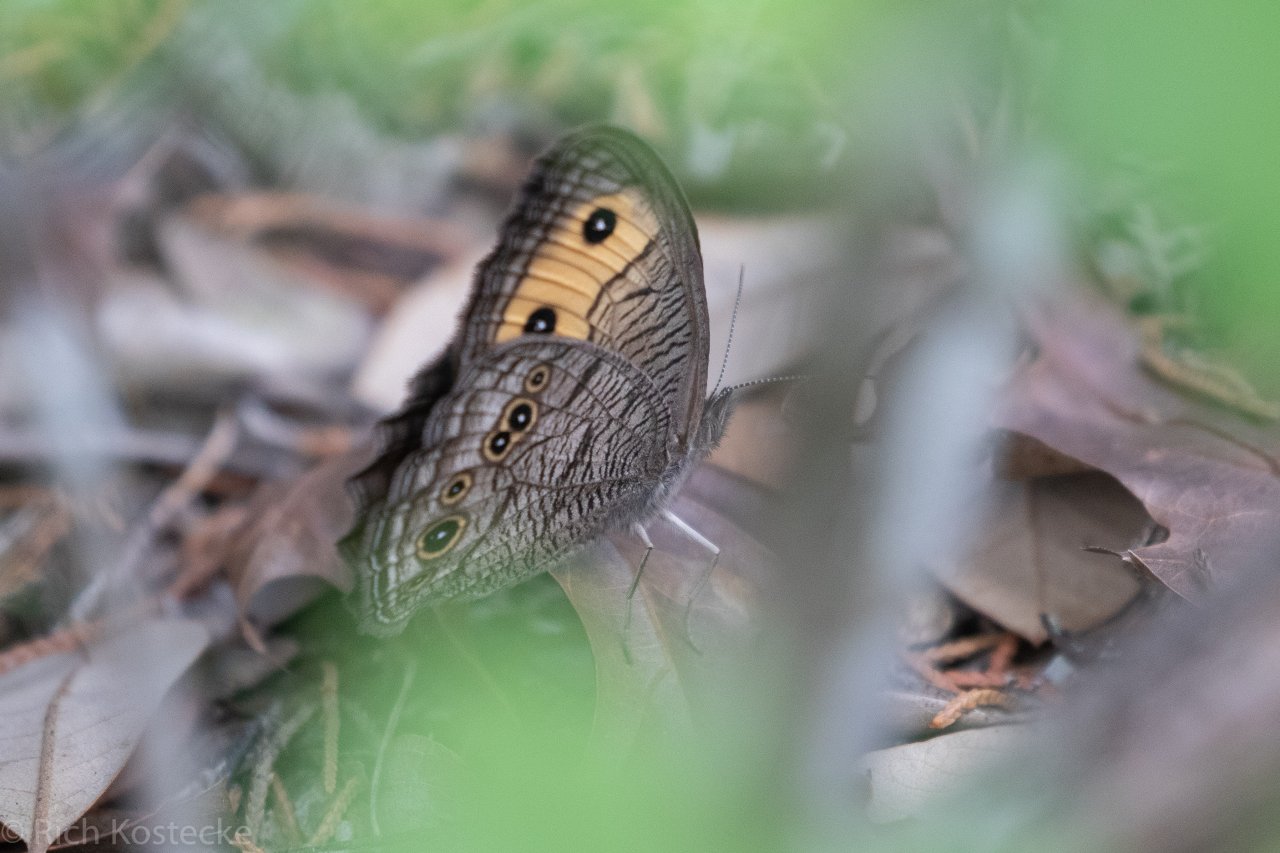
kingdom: Animalia
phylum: Arthropoda
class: Insecta
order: Lepidoptera
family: Nymphalidae
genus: Cercyonis
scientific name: Cercyonis pegala
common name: Common Wood-Nymph
